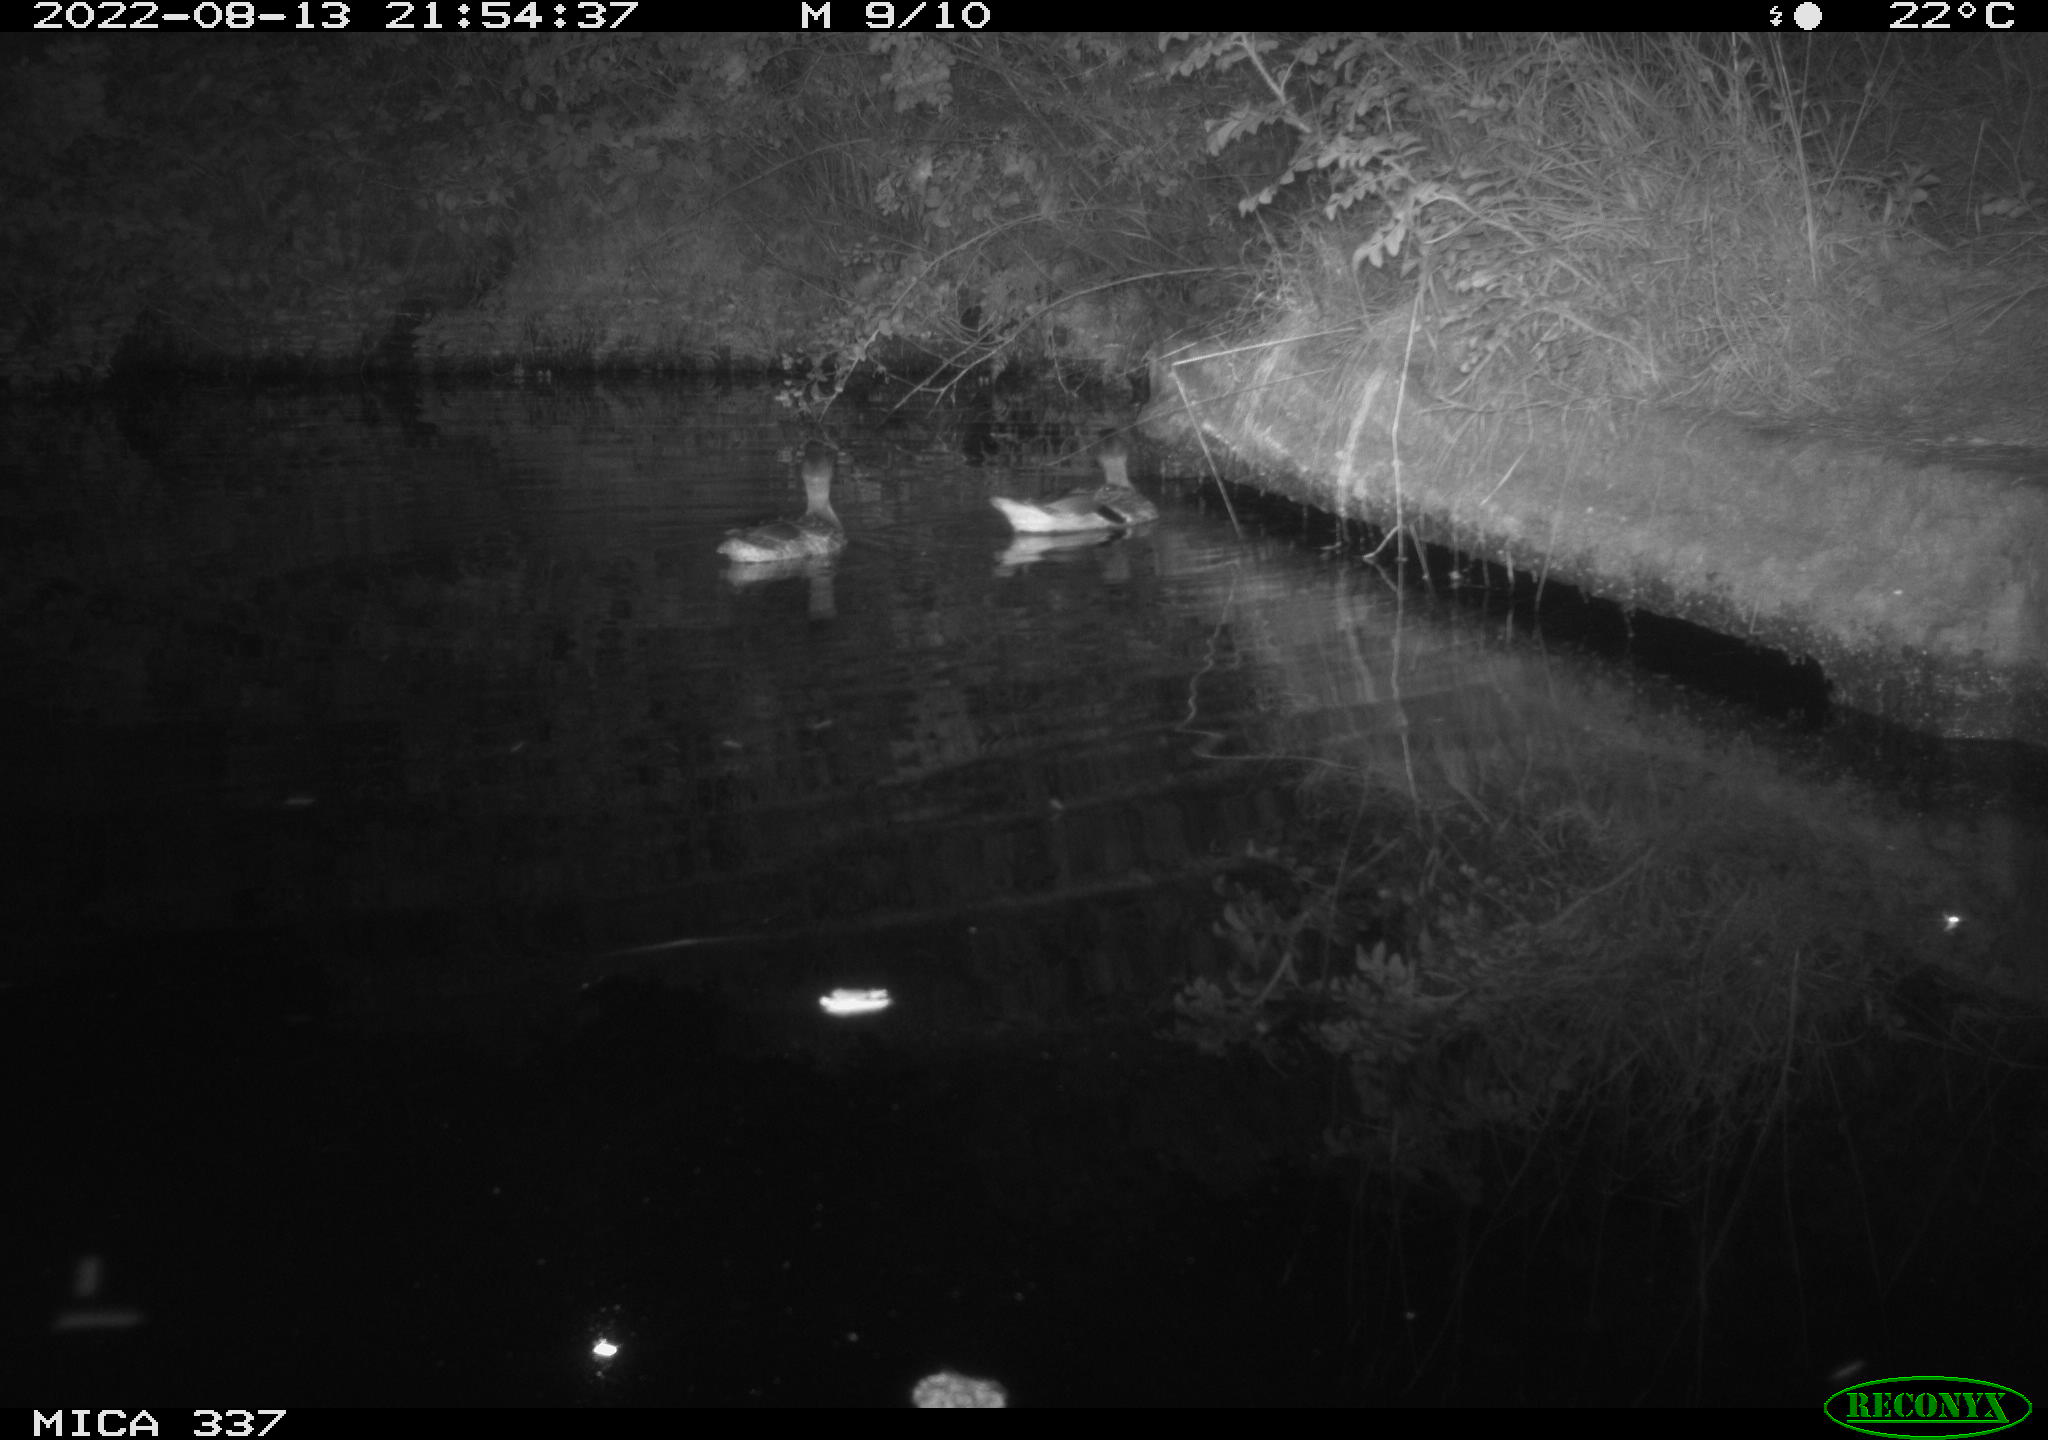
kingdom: Animalia
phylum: Chordata
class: Aves
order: Anseriformes
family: Anatidae
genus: Anas
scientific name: Anas platyrhynchos
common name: Mallard
